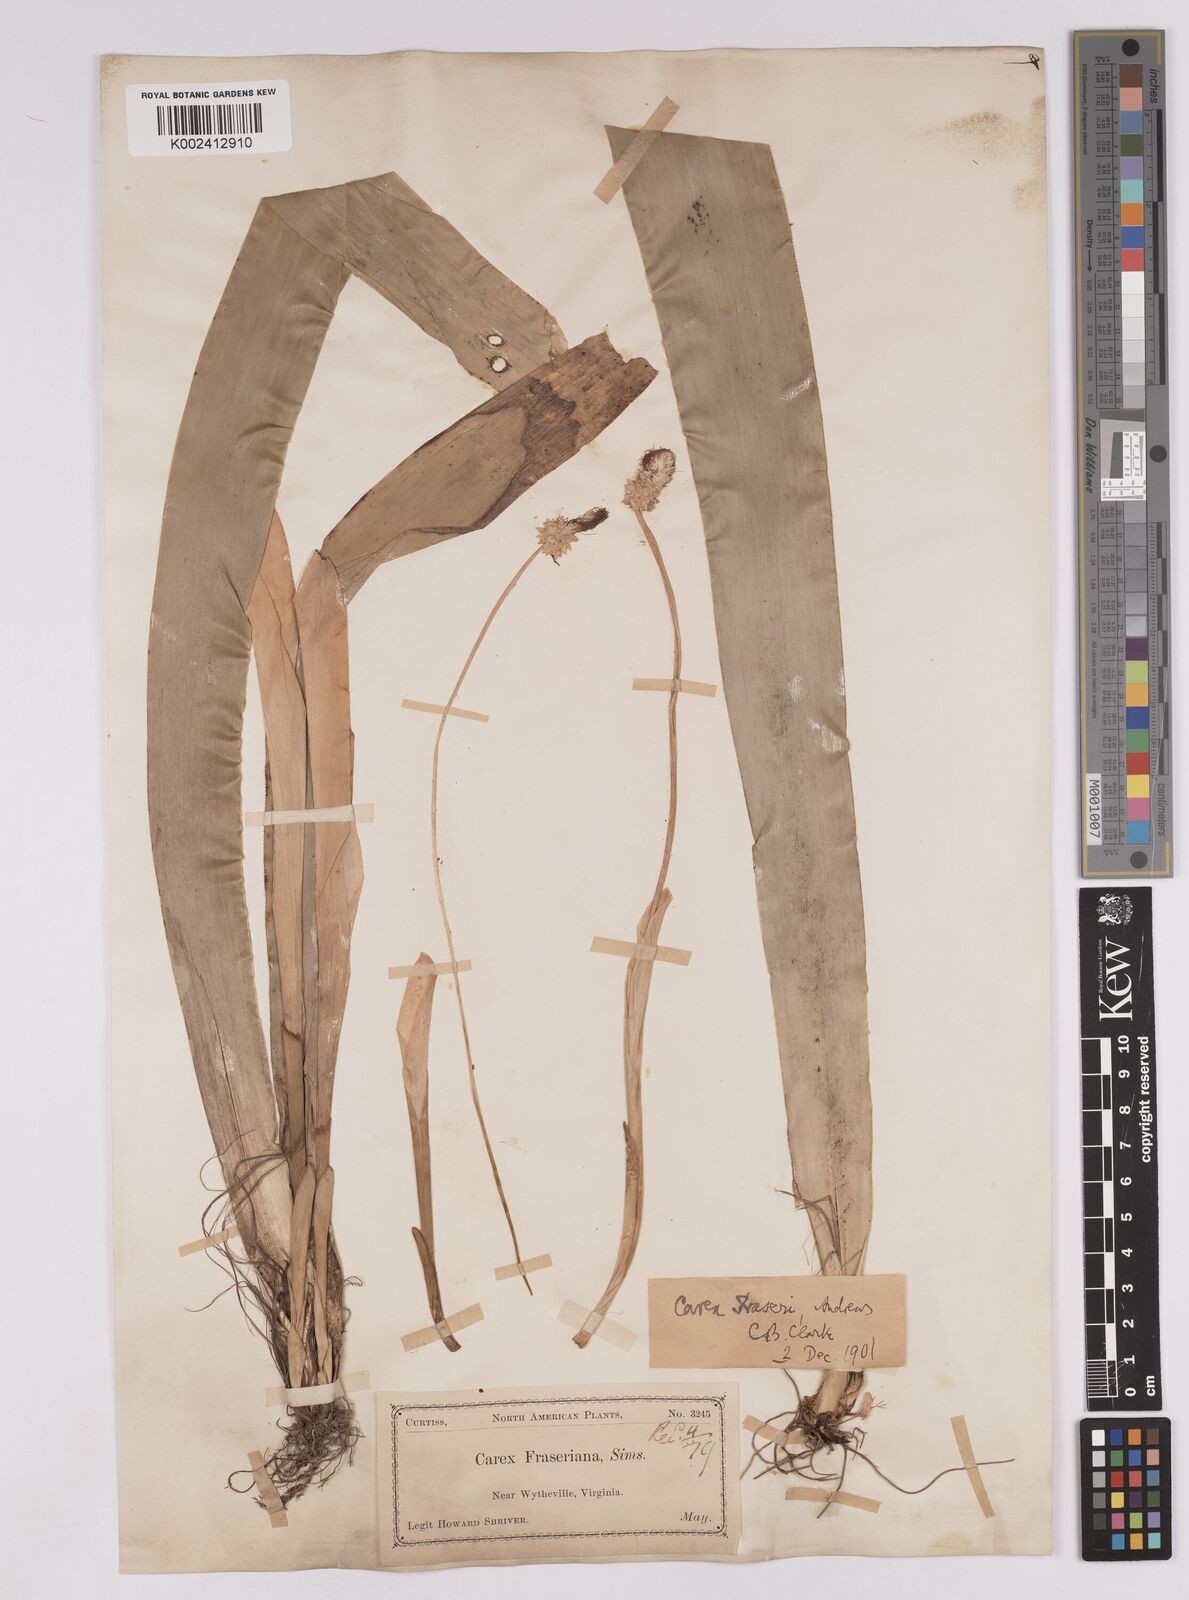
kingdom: Plantae
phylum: Tracheophyta
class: Liliopsida
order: Poales
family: Cyperaceae
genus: Carex
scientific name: Carex fraseriana
